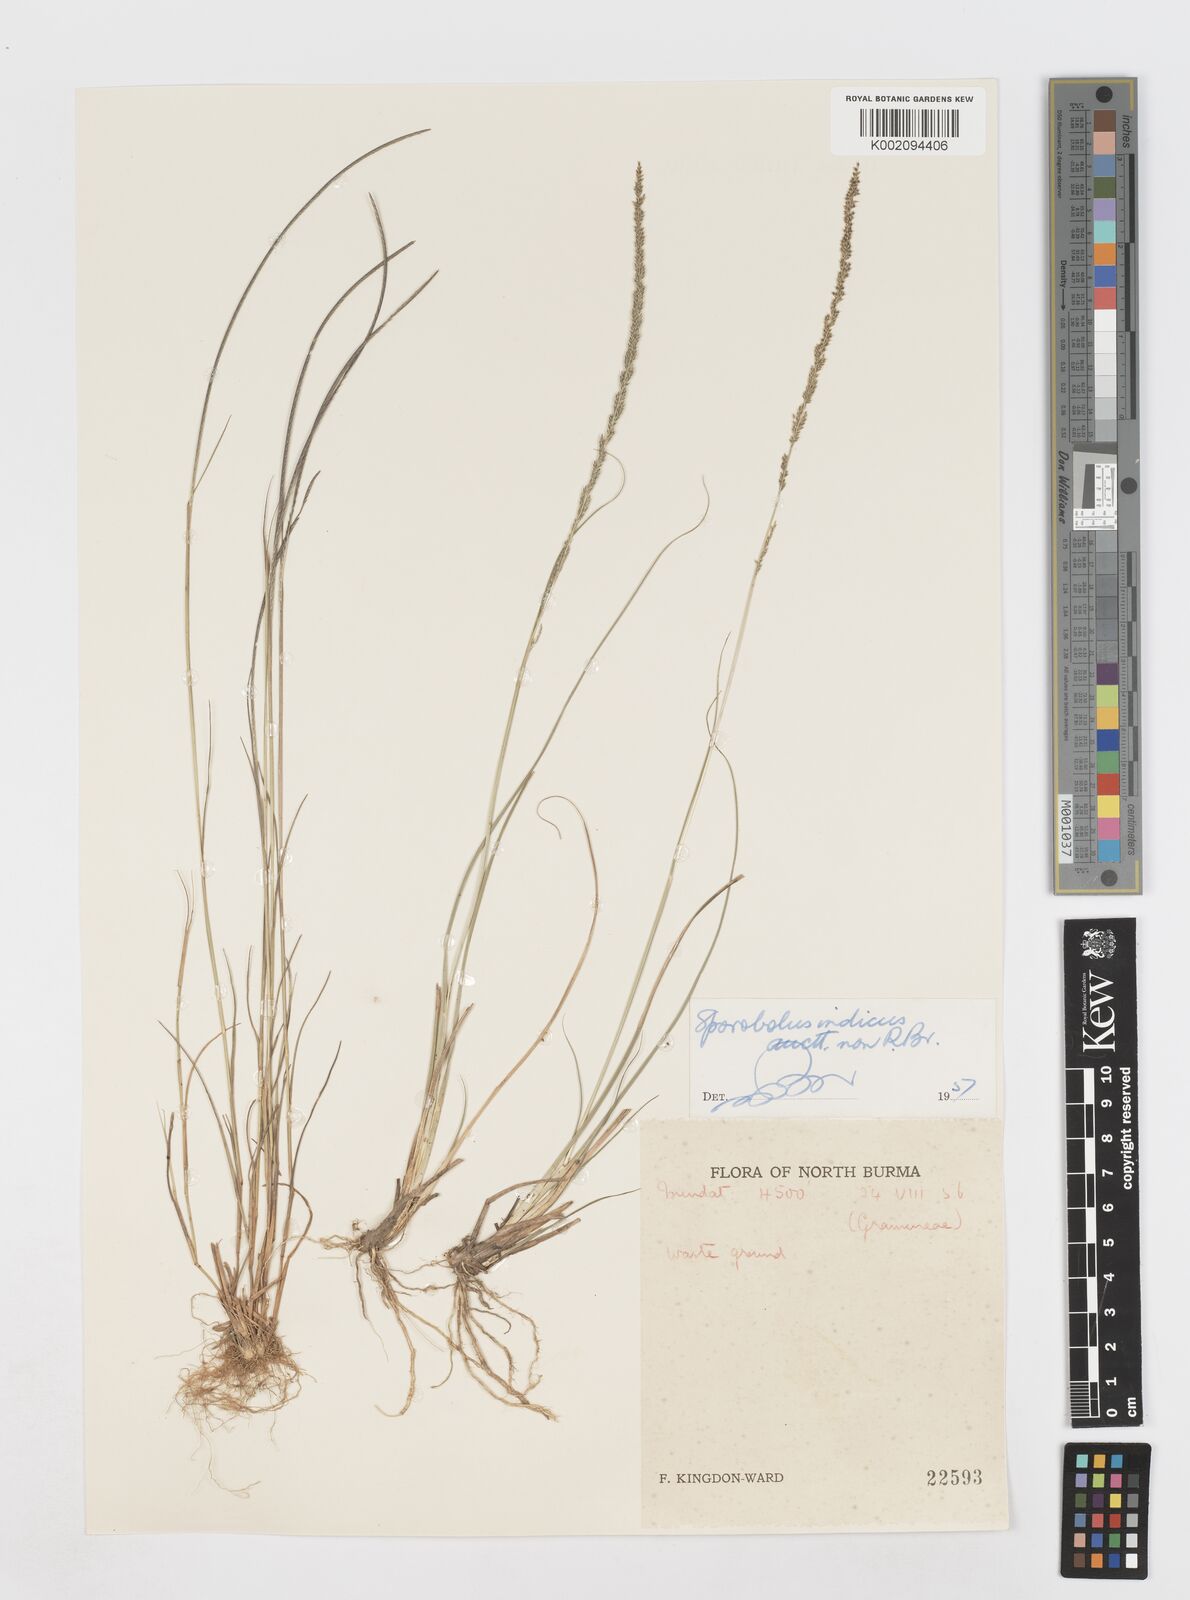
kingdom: Plantae
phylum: Tracheophyta
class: Liliopsida
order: Poales
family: Poaceae
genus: Sporobolus
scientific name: Sporobolus fertilis
